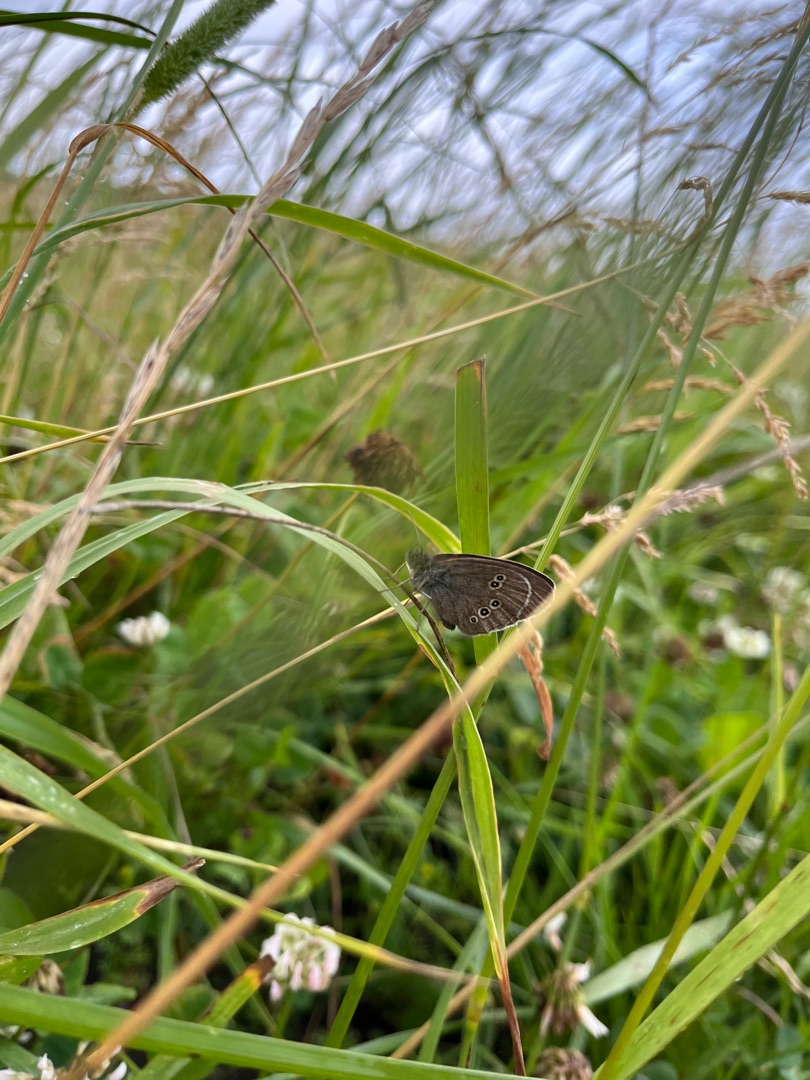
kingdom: Animalia
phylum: Arthropoda
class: Insecta
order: Lepidoptera
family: Nymphalidae
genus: Aphantopus
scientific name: Aphantopus hyperantus
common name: Engrandøje
